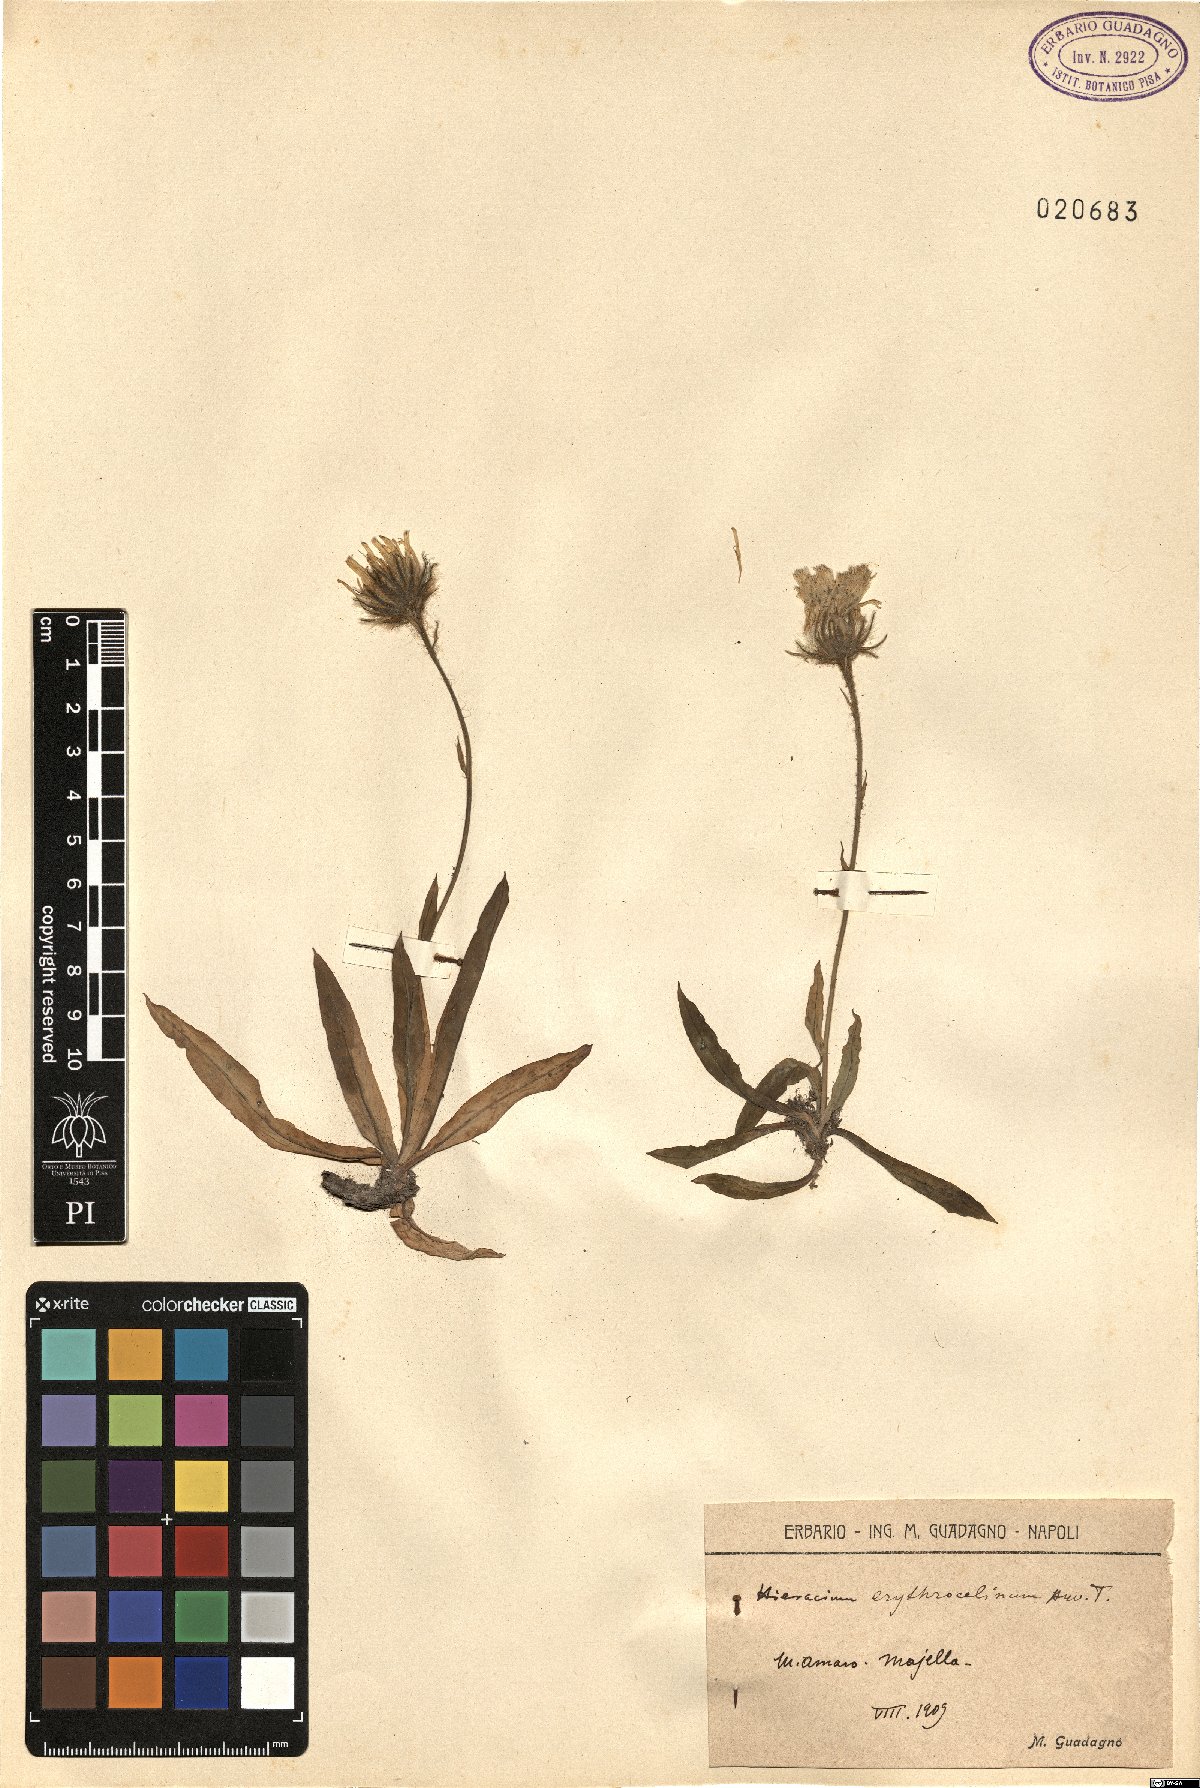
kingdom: Plantae
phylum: Tracheophyta
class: Magnoliopsida
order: Asterales
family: Asteraceae
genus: Hieracium
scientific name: Hieracium
